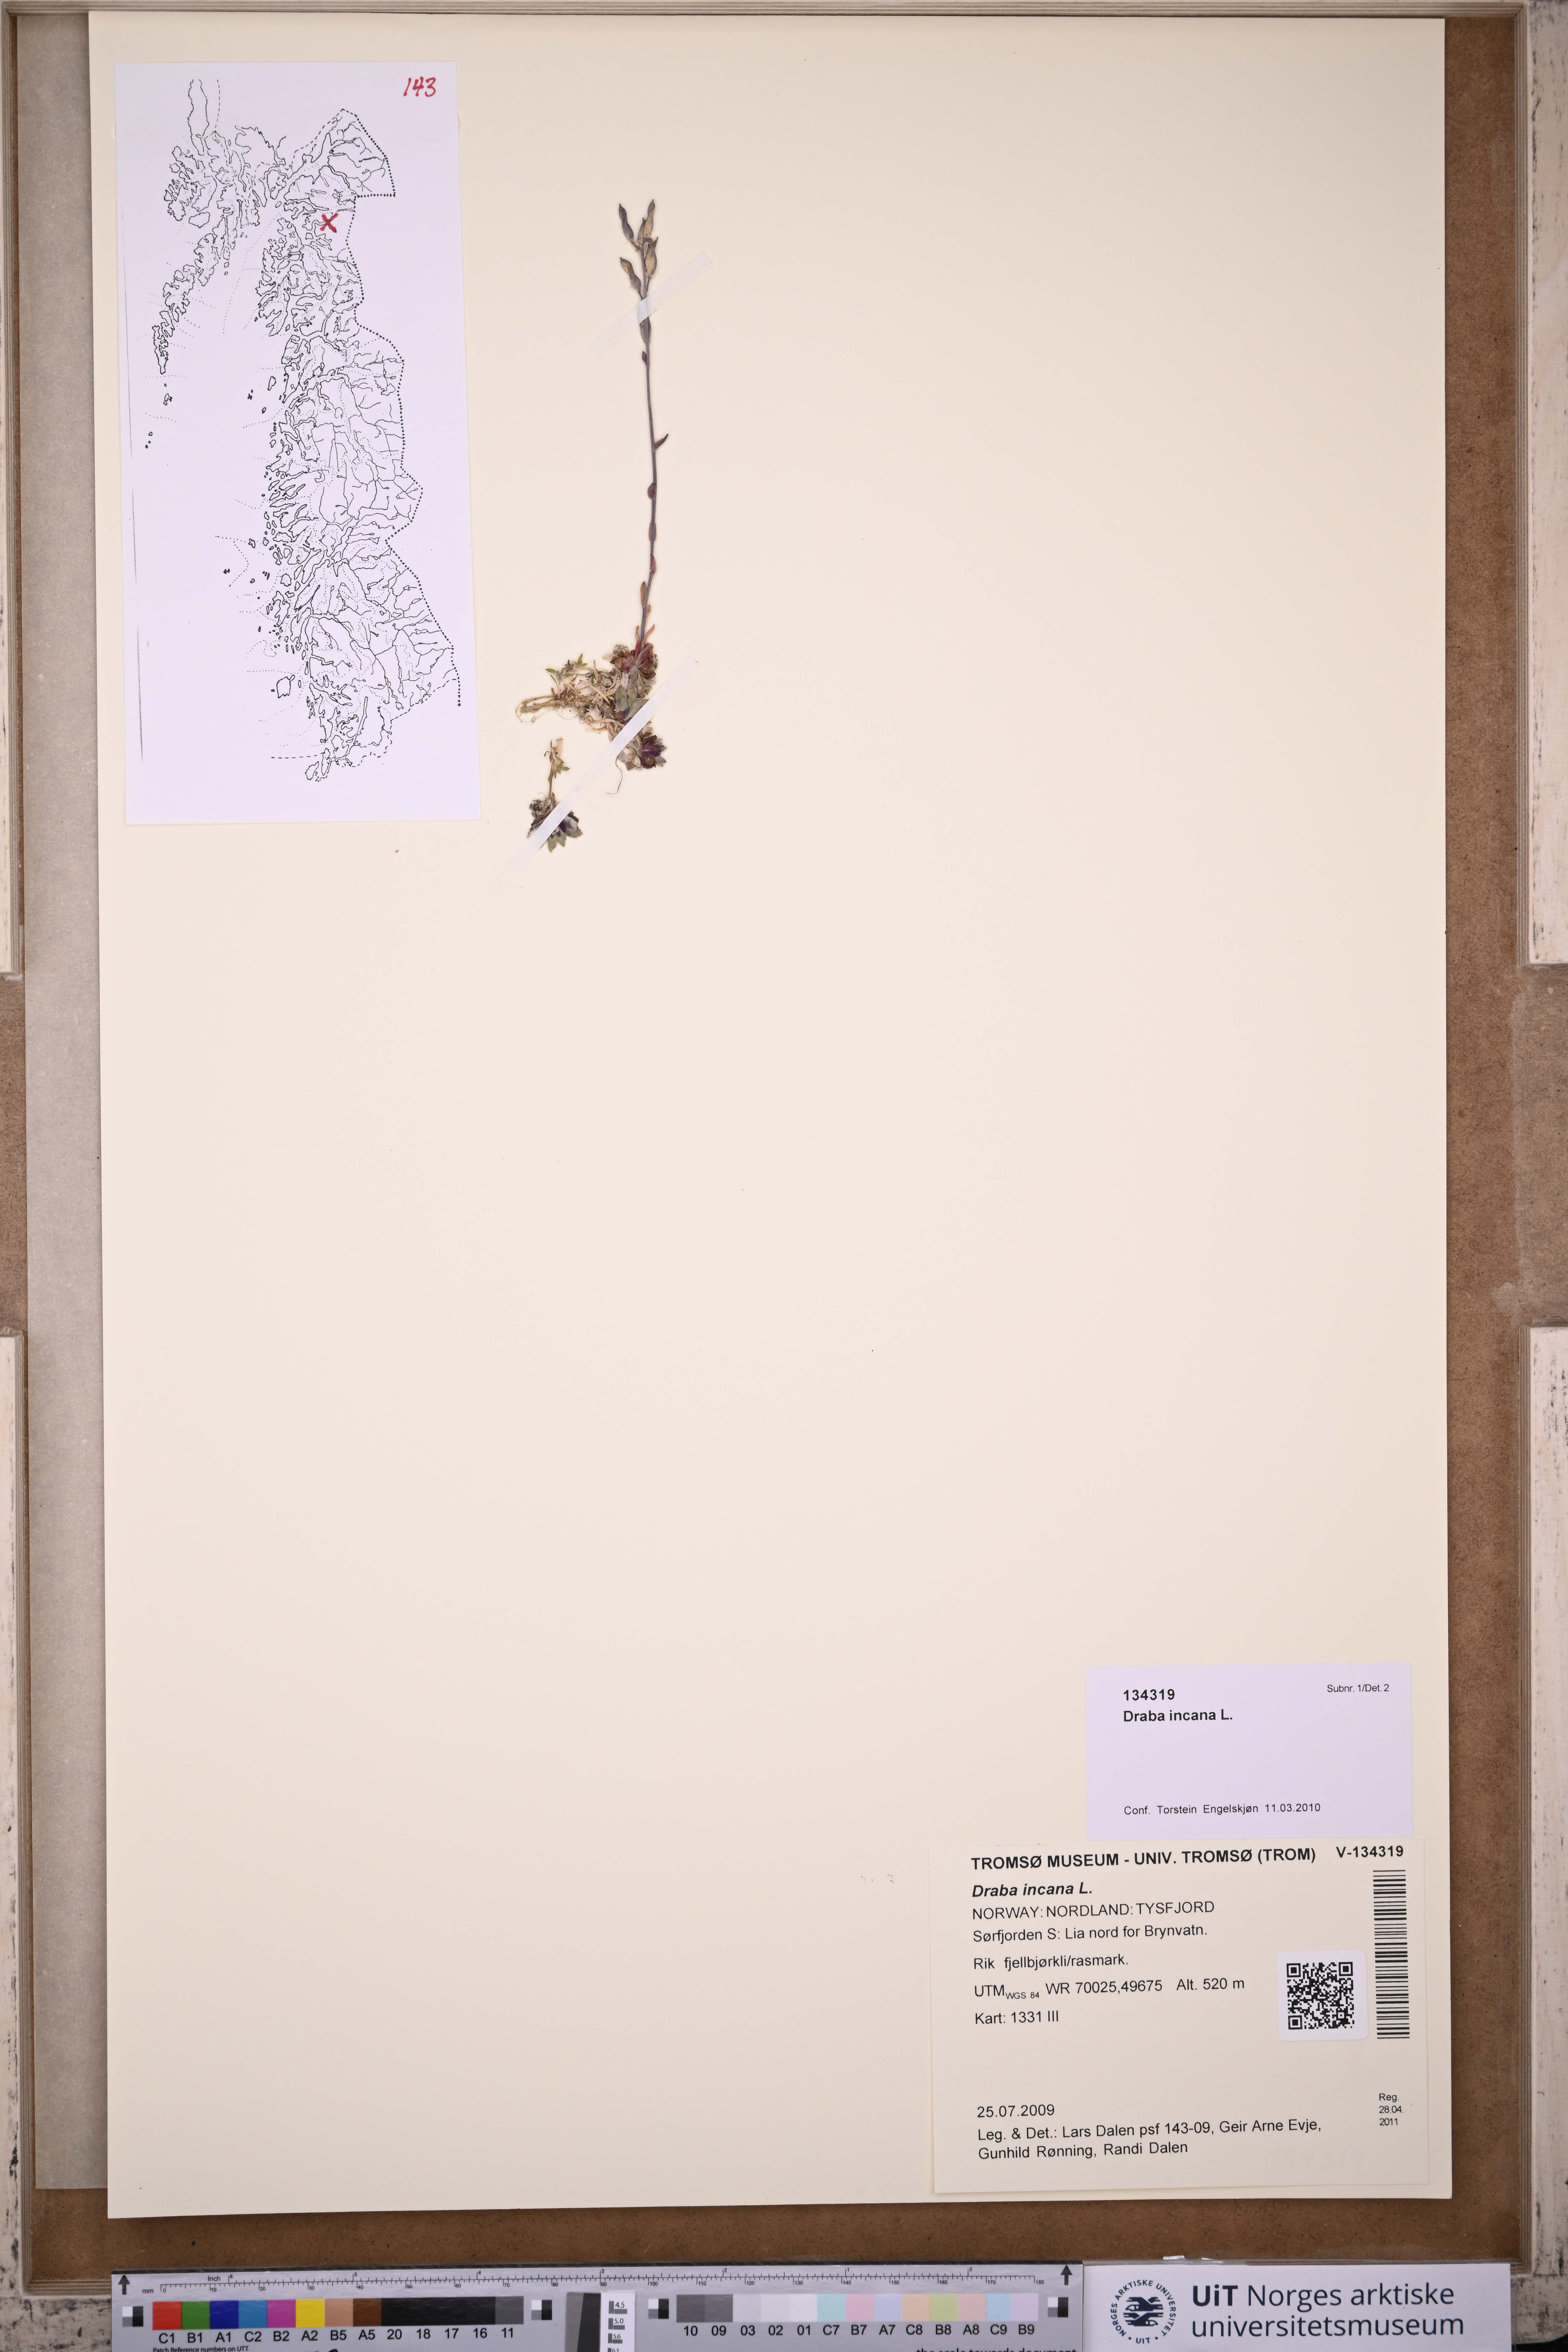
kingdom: Plantae
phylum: Tracheophyta
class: Magnoliopsida
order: Brassicales
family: Brassicaceae
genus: Draba
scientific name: Draba incana
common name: Hoary whitlow-grass
